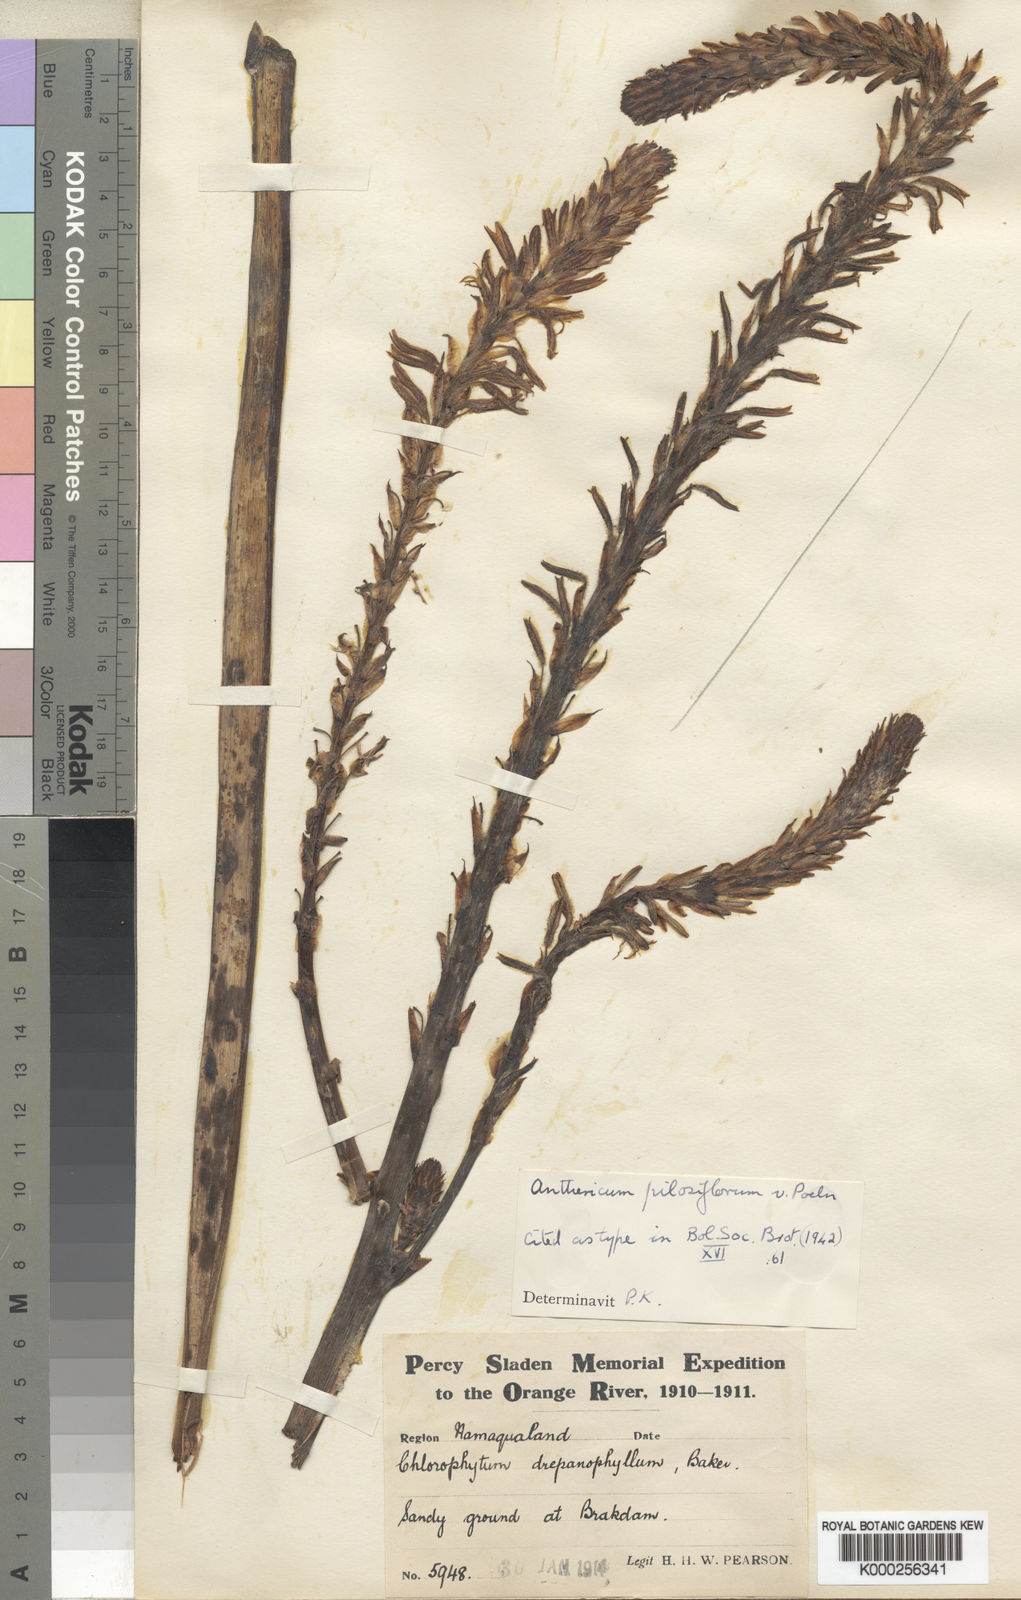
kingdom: Plantae
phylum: Tracheophyta
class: Liliopsida
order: Asparagales
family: Asphodelaceae
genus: Trachyandra
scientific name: Trachyandra ciliata
